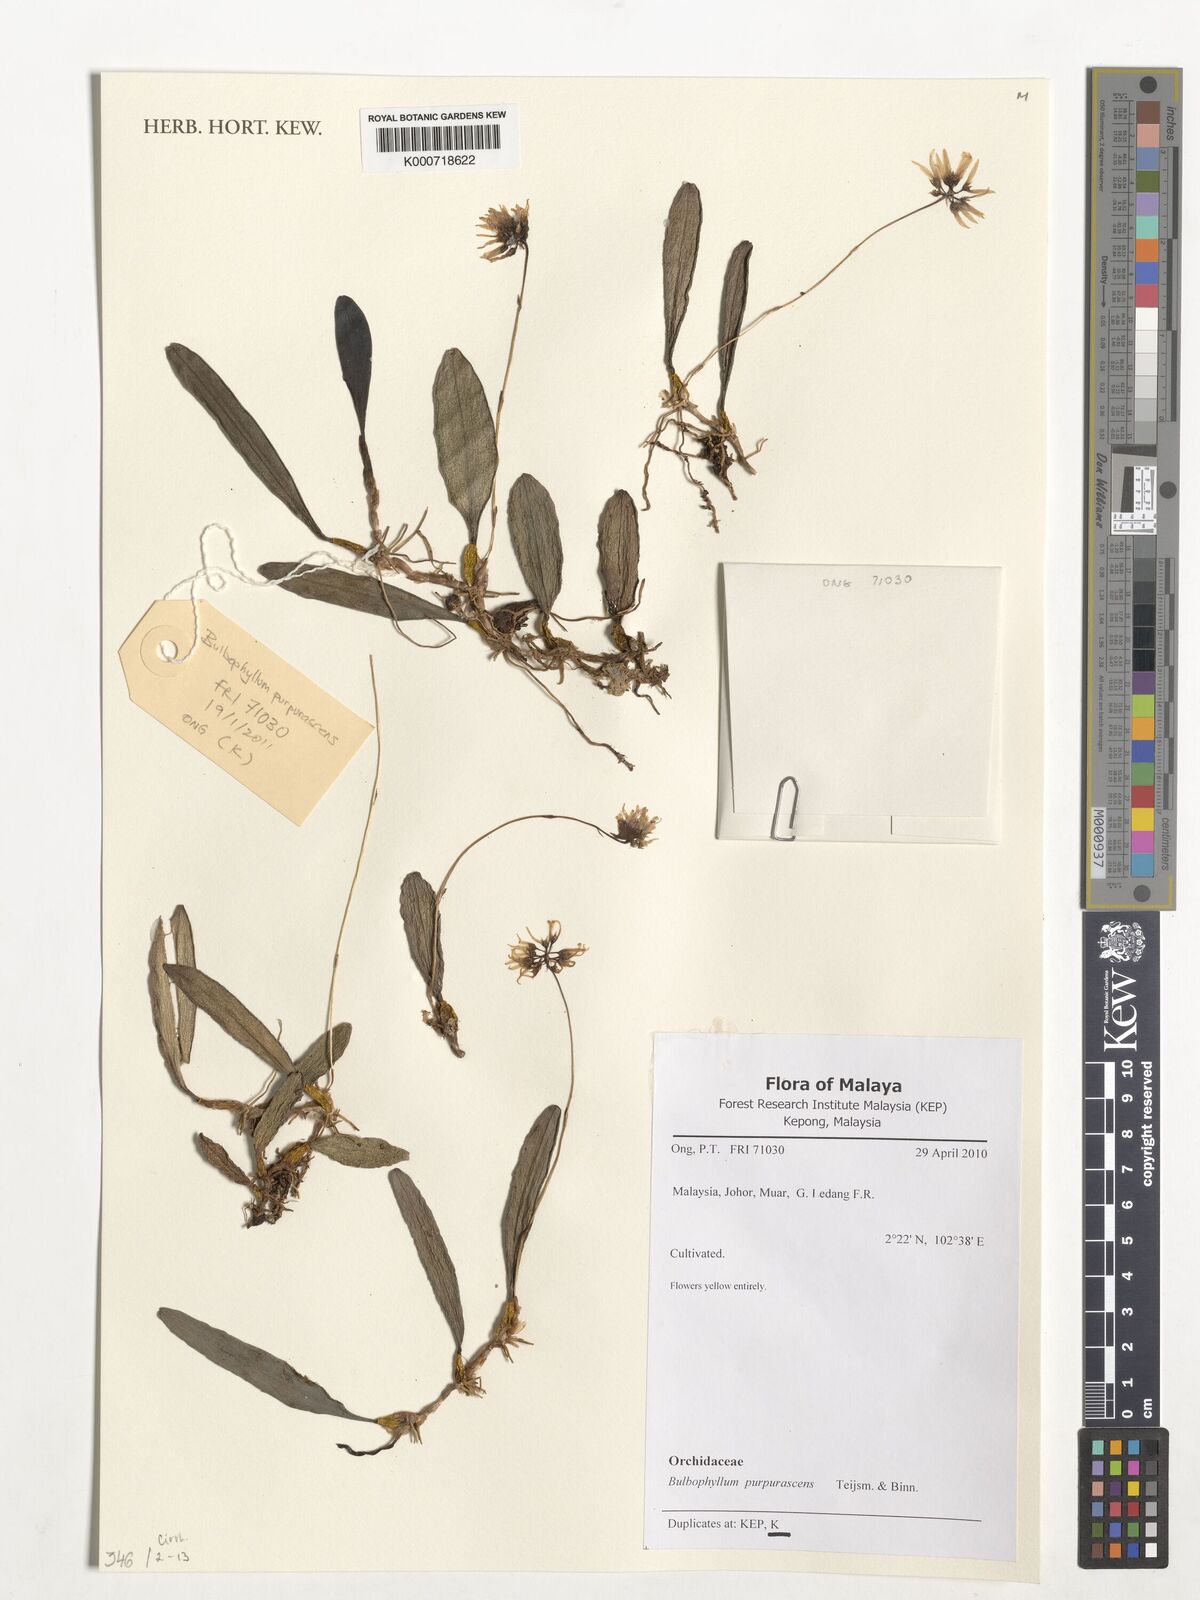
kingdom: Plantae
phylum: Tracheophyta
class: Liliopsida
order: Asparagales
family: Orchidaceae
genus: Bulbophyllum
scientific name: Bulbophyllum purpurascens
